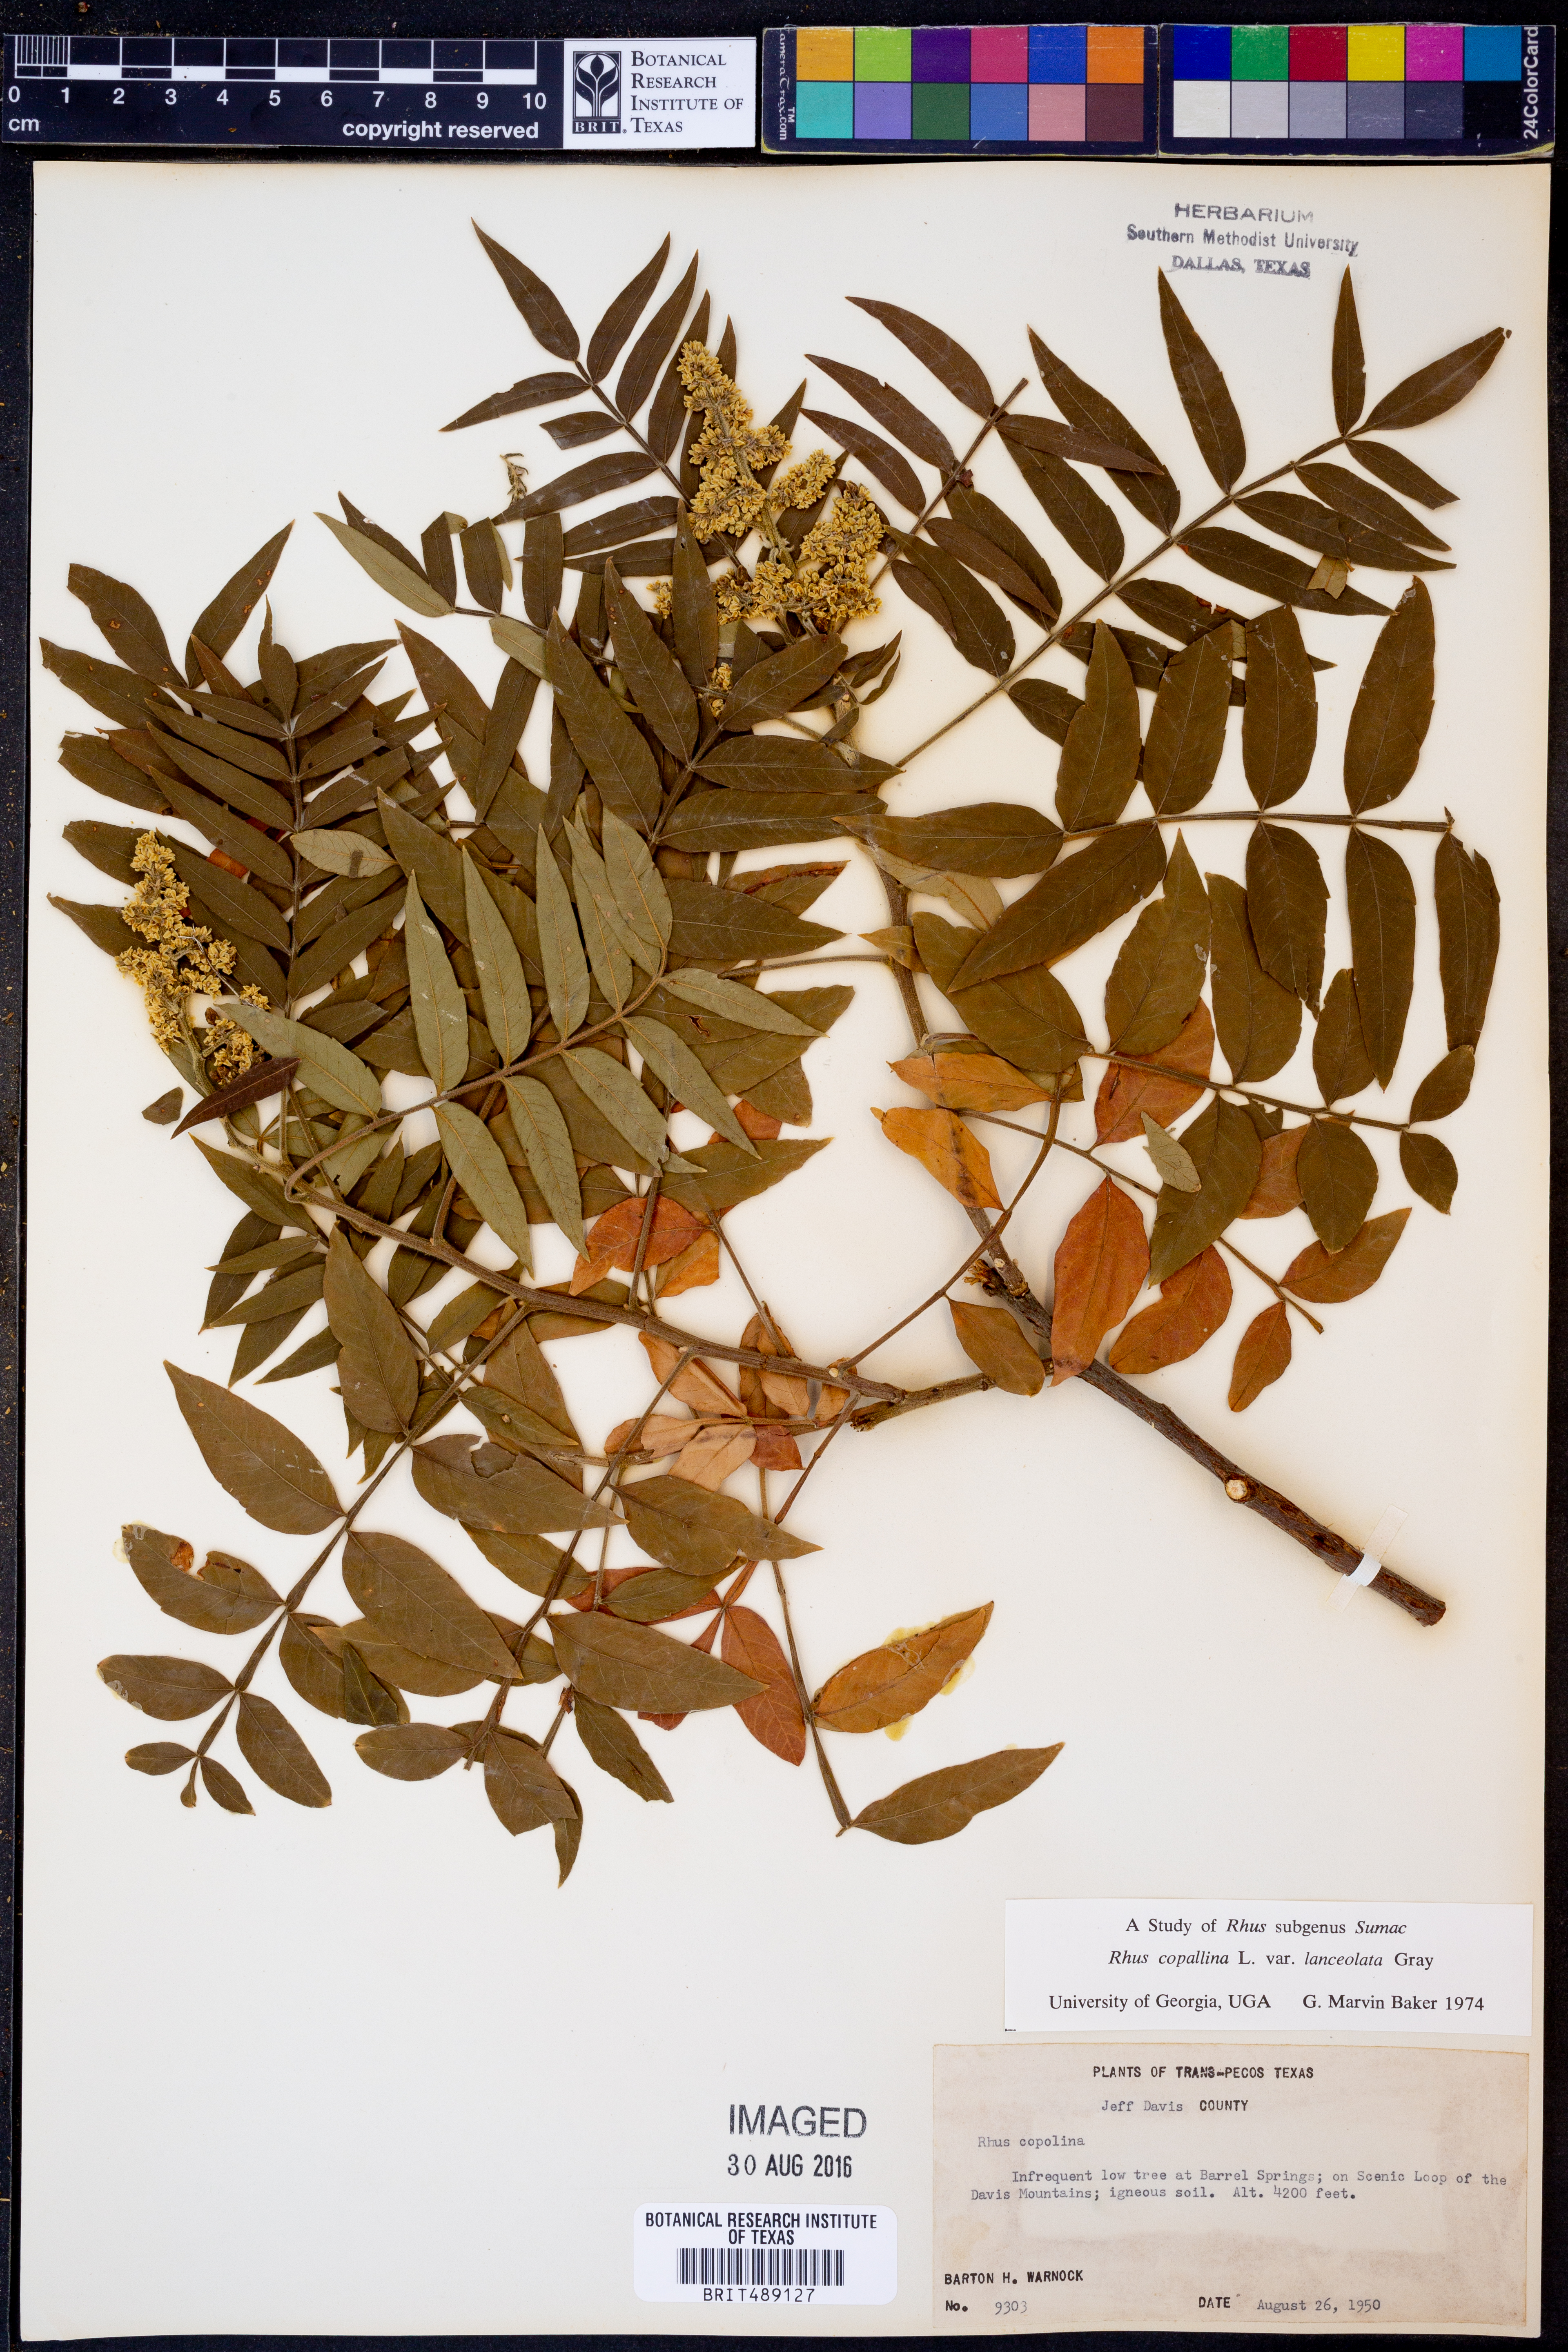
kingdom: Plantae
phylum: Tracheophyta
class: Magnoliopsida
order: Sapindales
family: Anacardiaceae
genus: Rhus
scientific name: Rhus lanceolata
